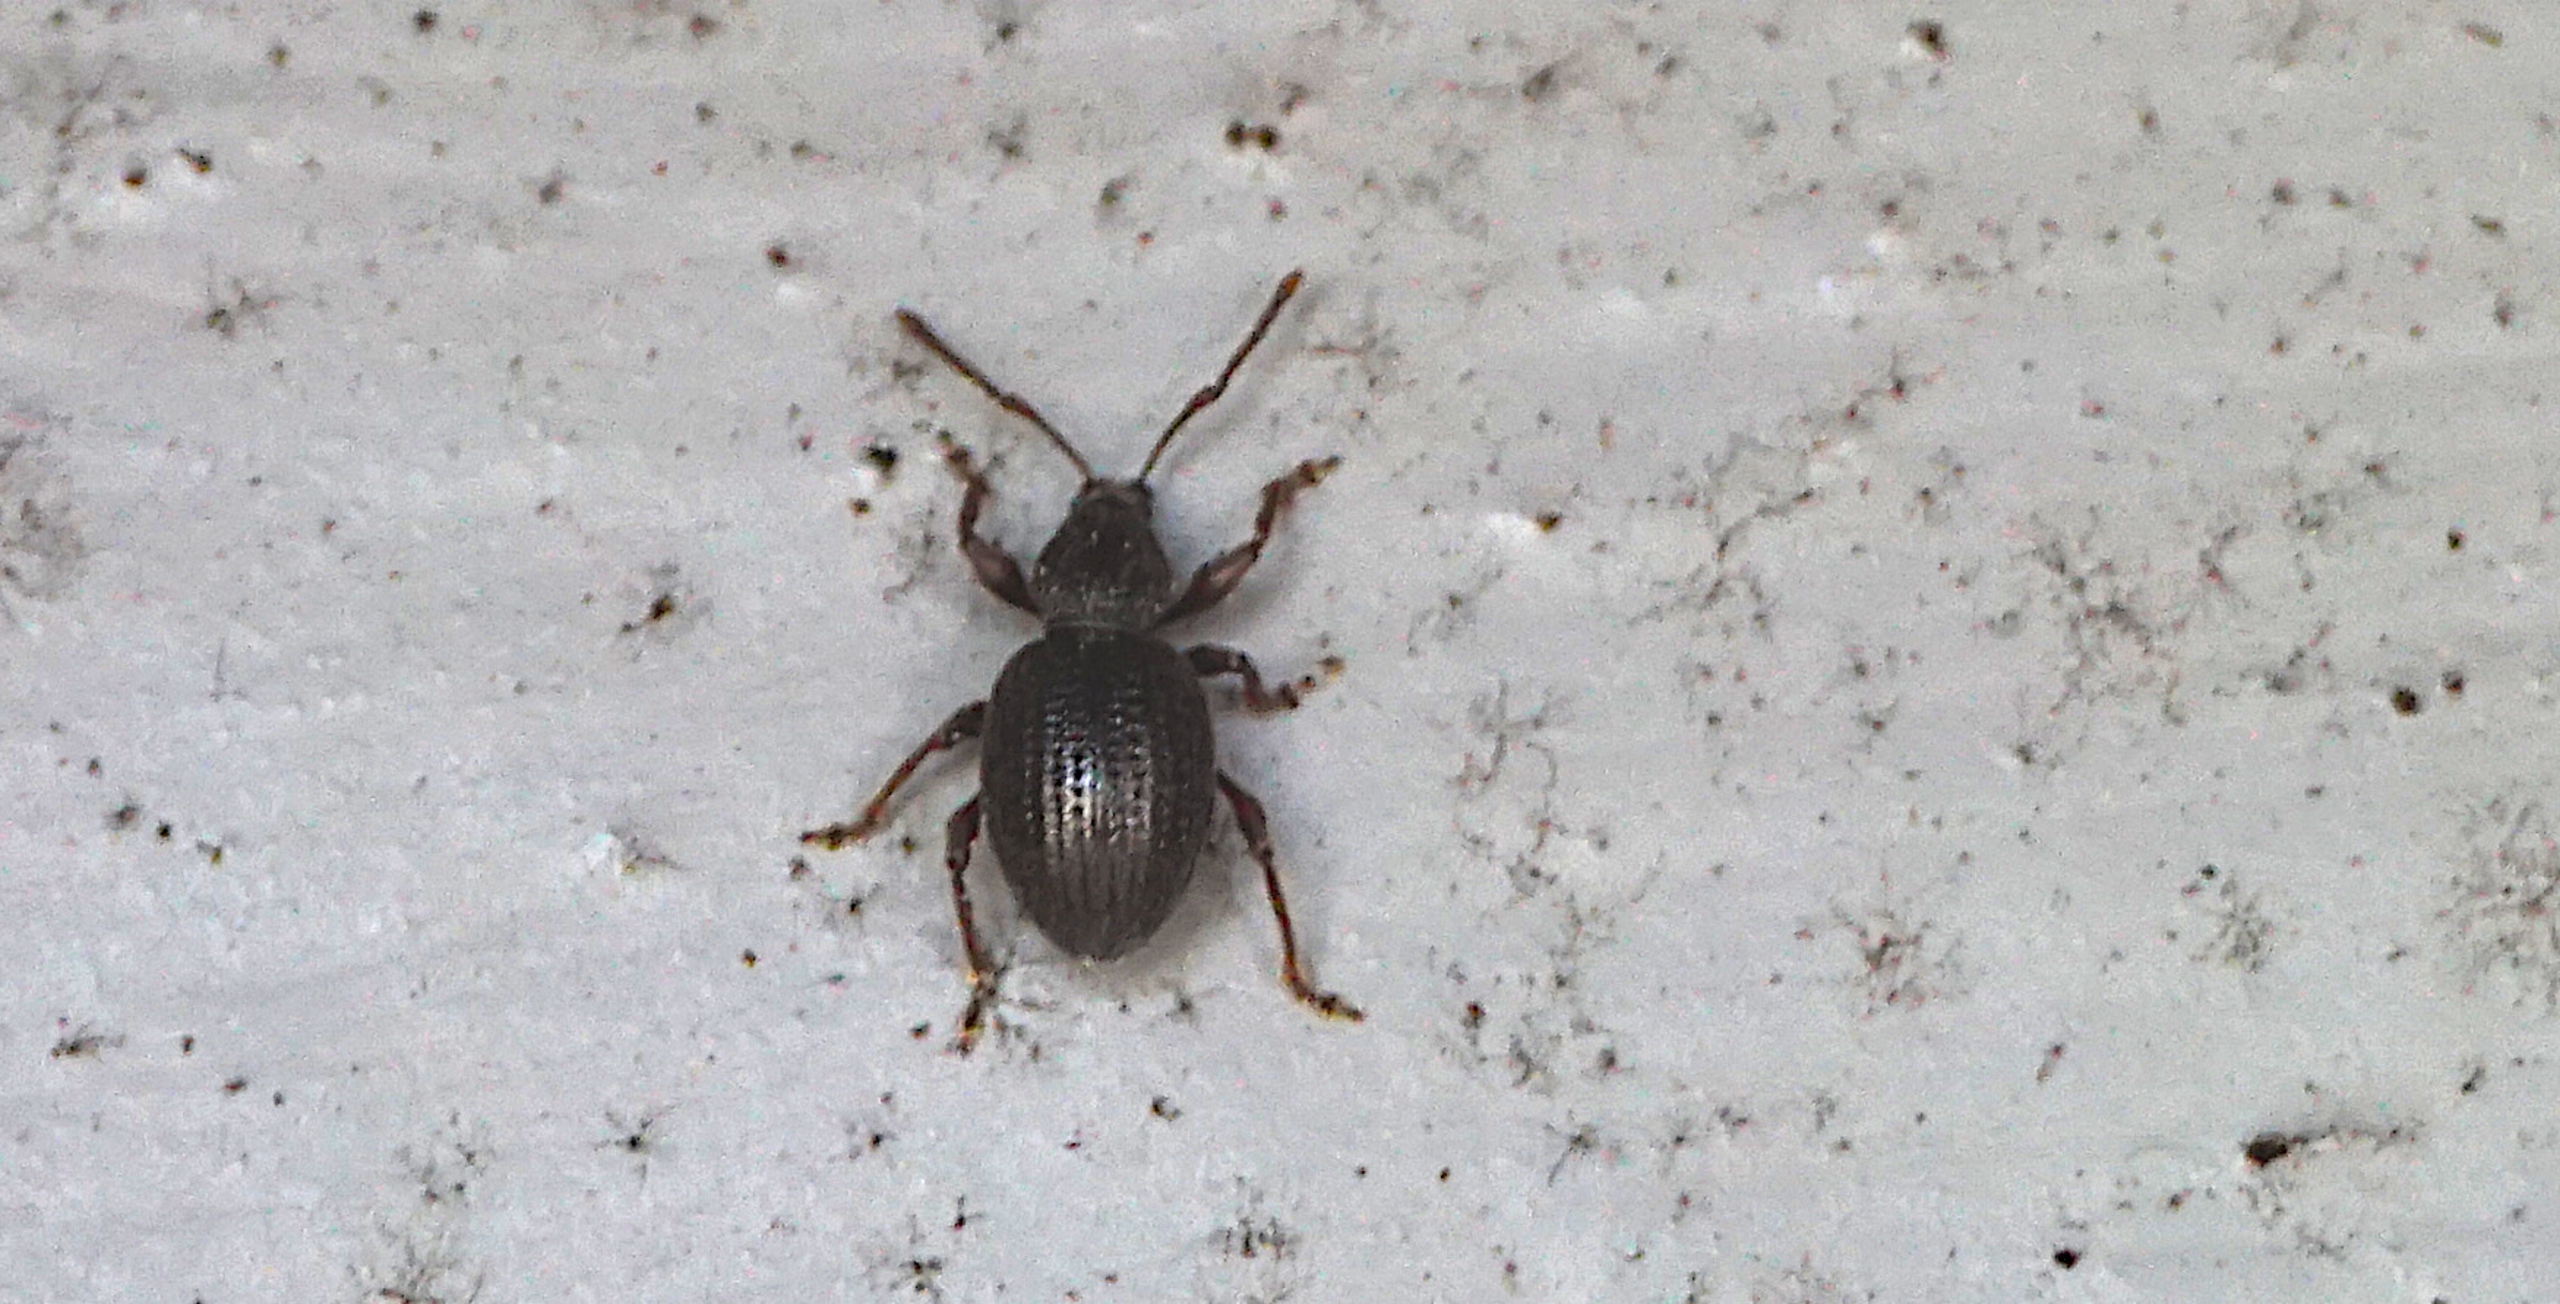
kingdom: Animalia
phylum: Arthropoda
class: Insecta
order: Coleoptera
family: Curculionidae
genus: Otiorhynchus
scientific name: Otiorhynchus ovatus
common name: Jordbærøresnudebille
